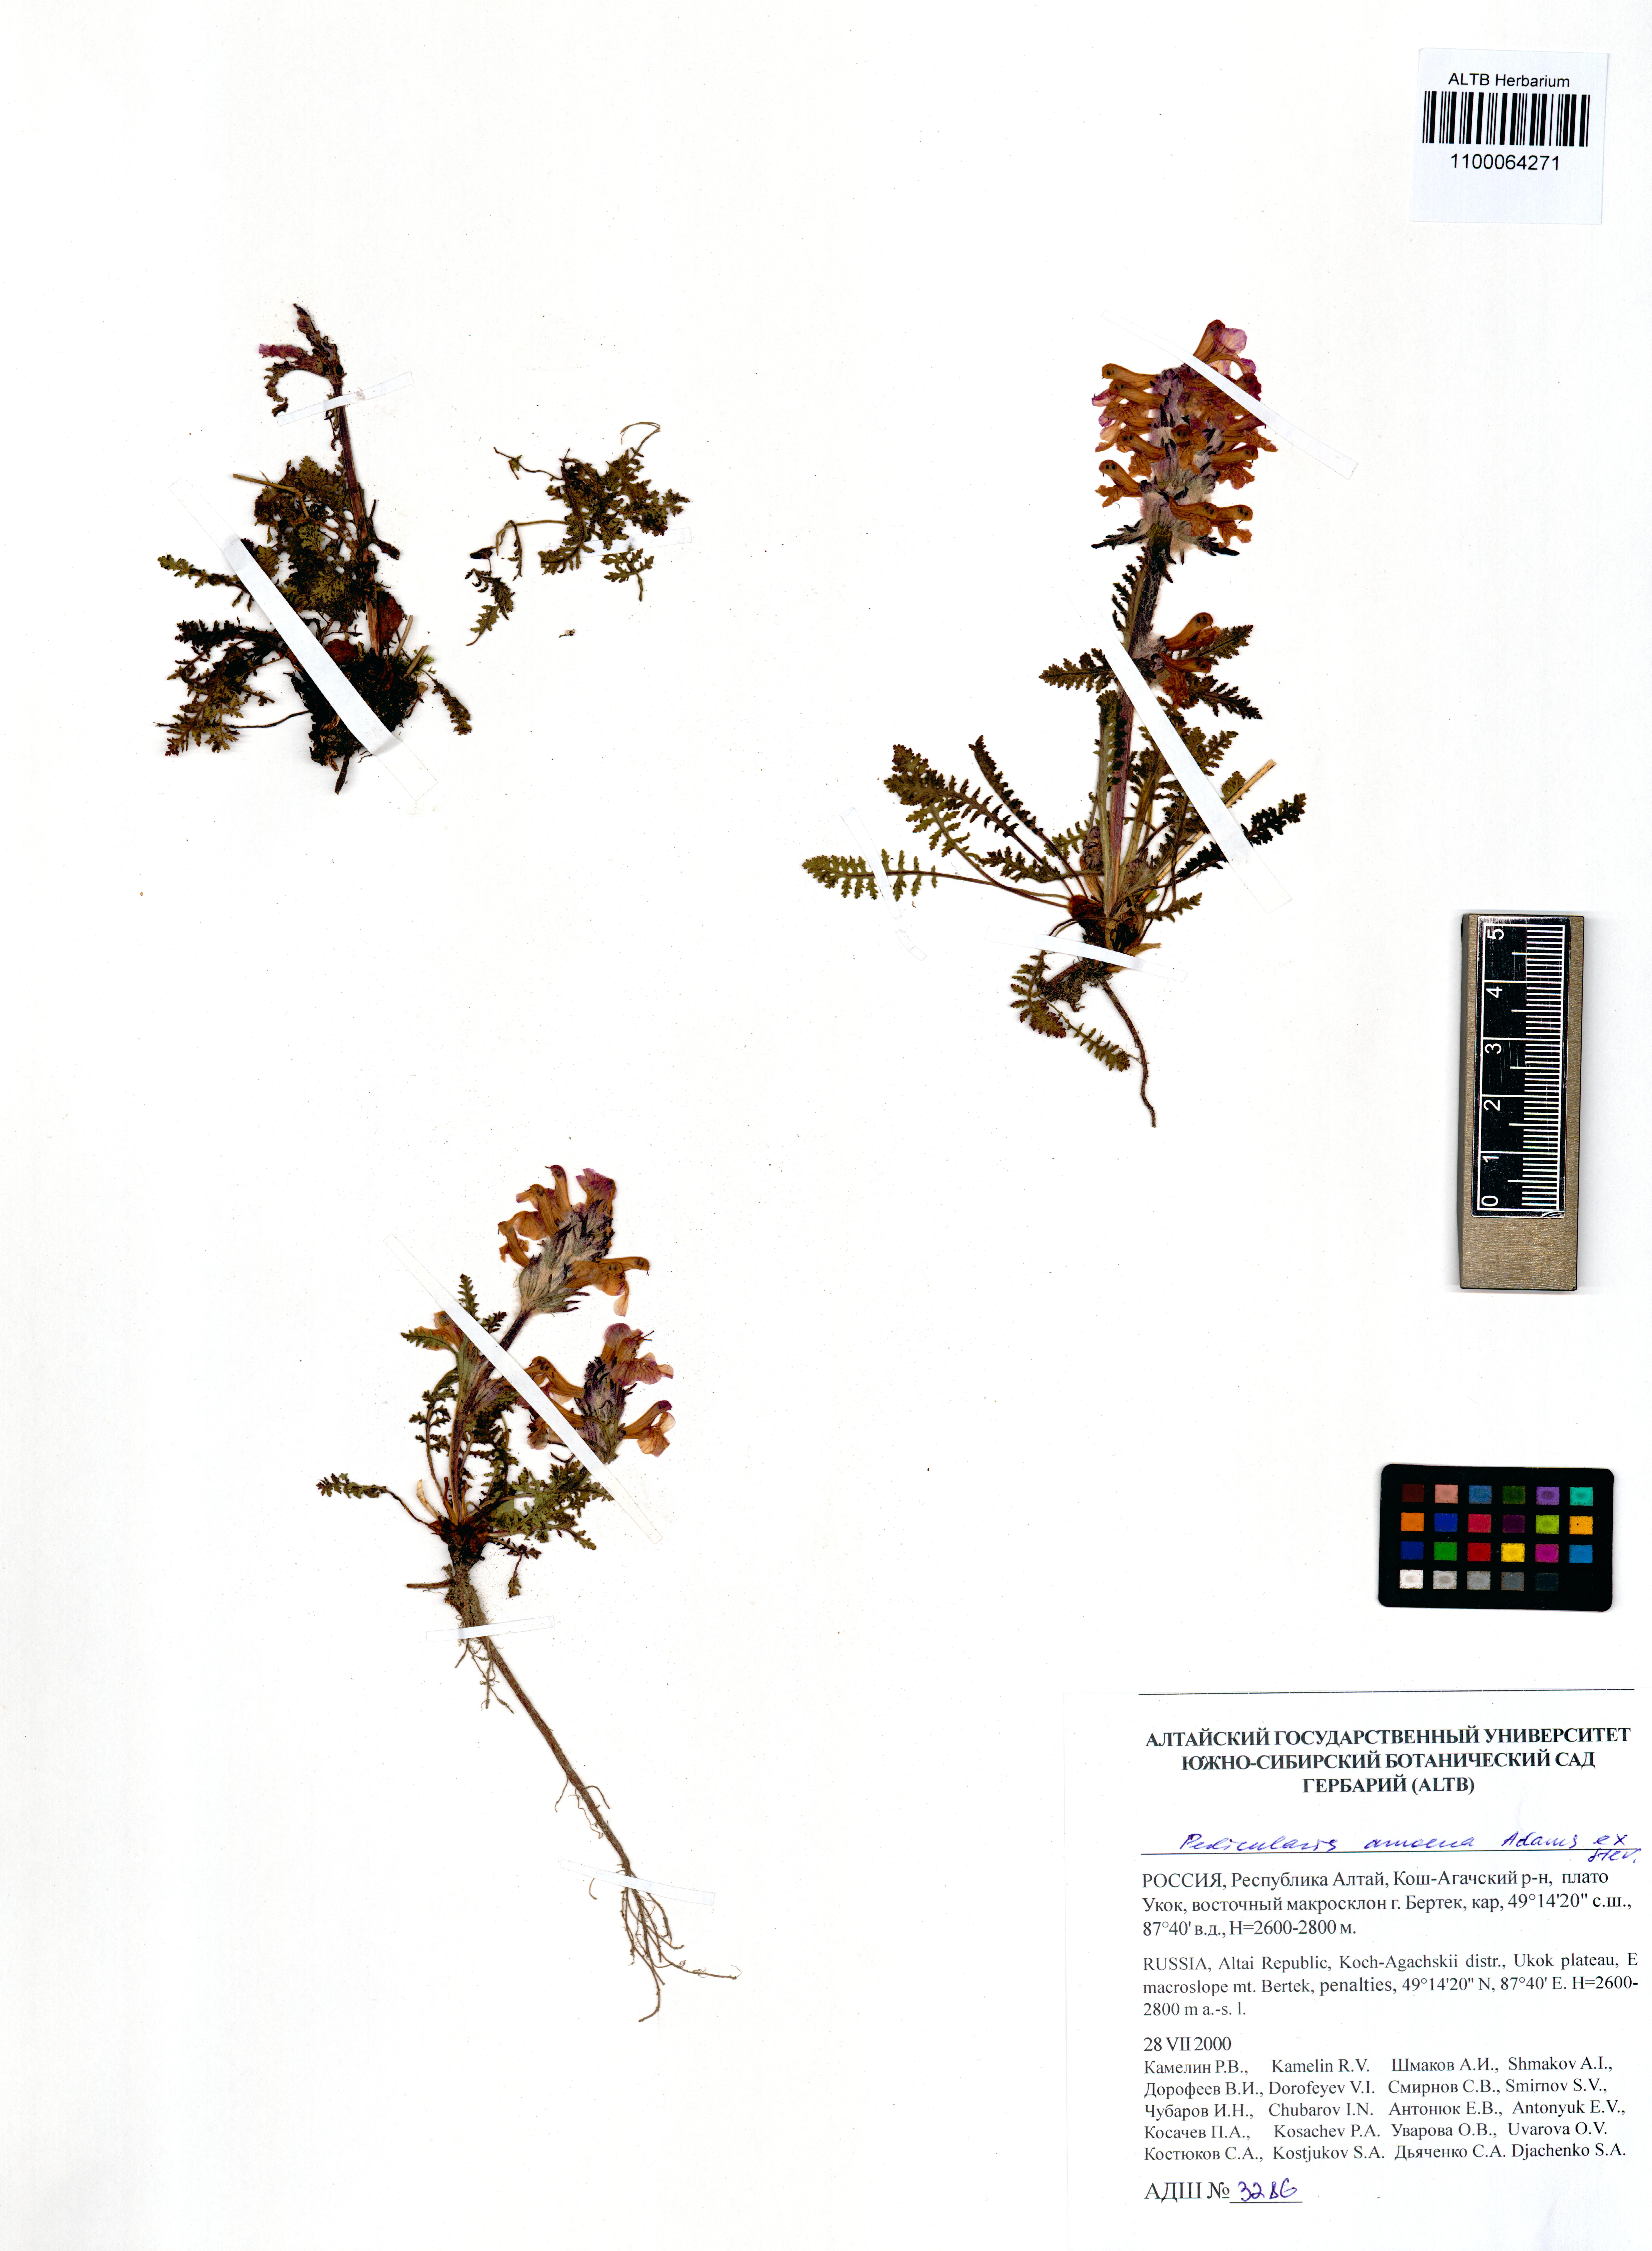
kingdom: Plantae
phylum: Tracheophyta
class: Magnoliopsida
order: Lamiales
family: Orobanchaceae
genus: Pedicularis
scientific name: Pedicularis amoena
